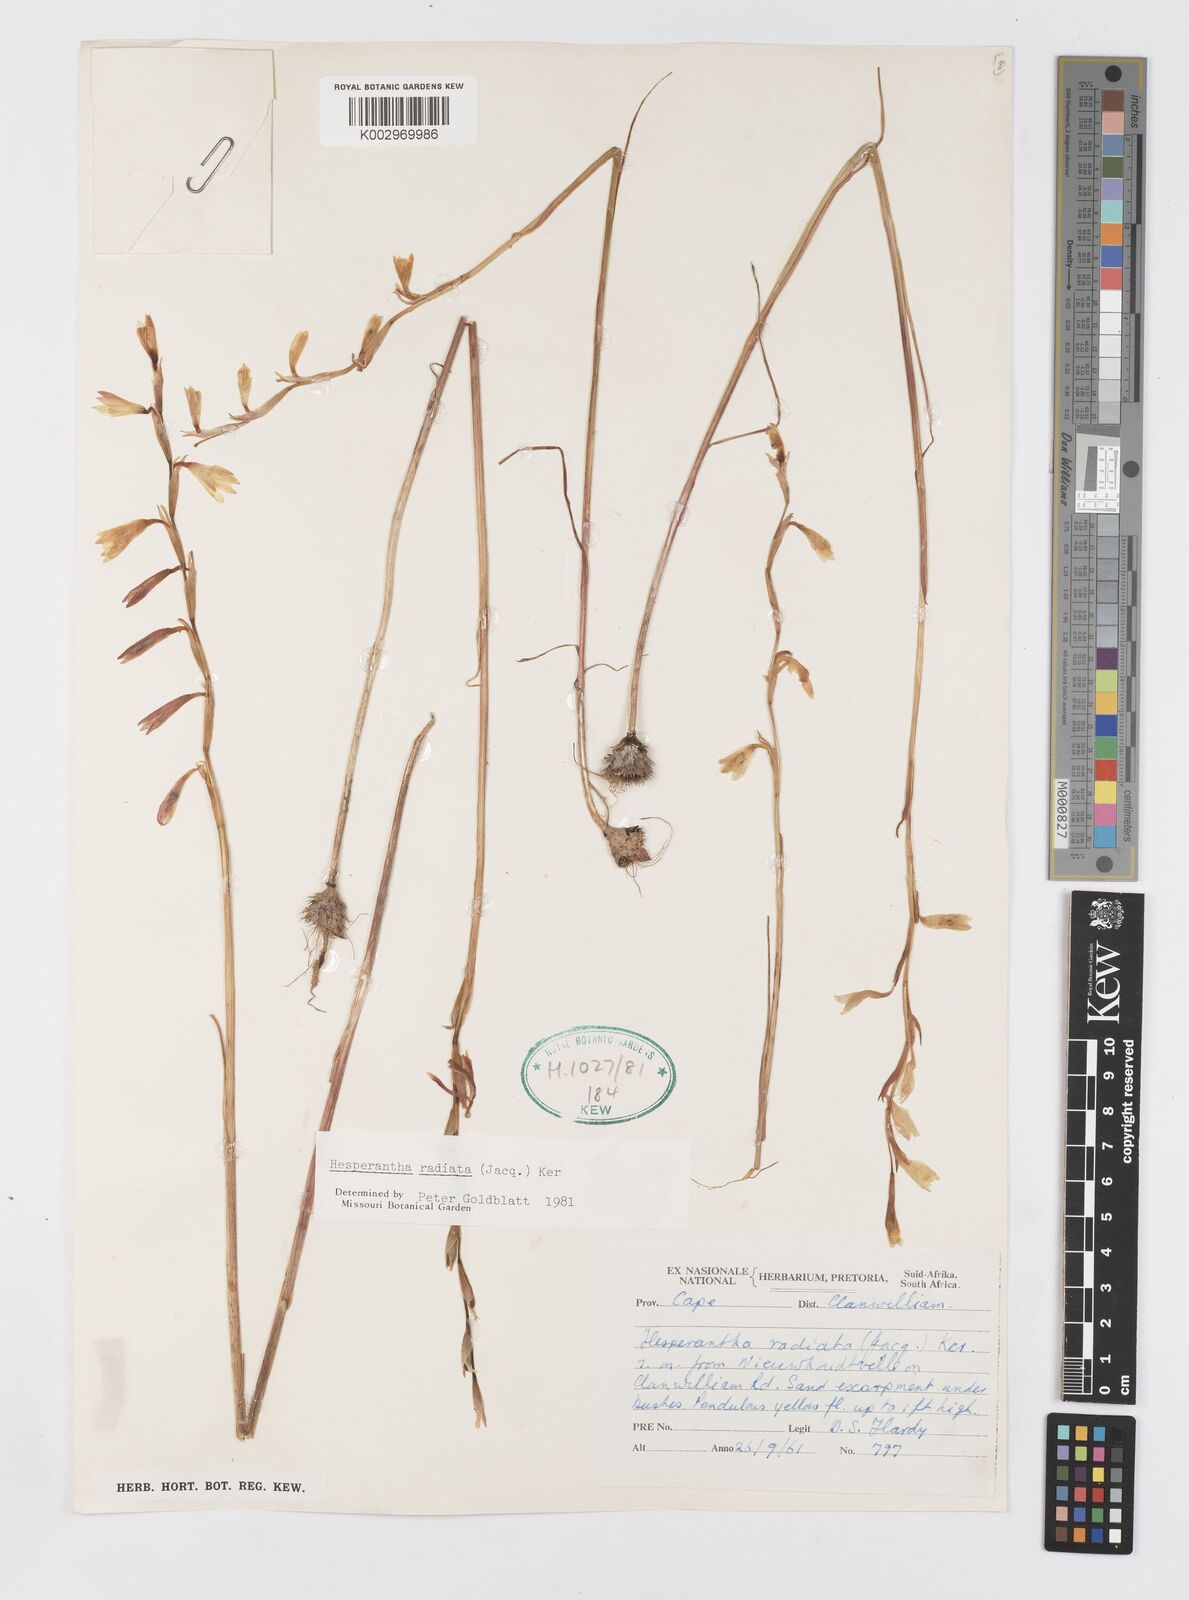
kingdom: Plantae
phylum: Tracheophyta
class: Liliopsida
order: Asparagales
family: Iridaceae
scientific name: Iridaceae
